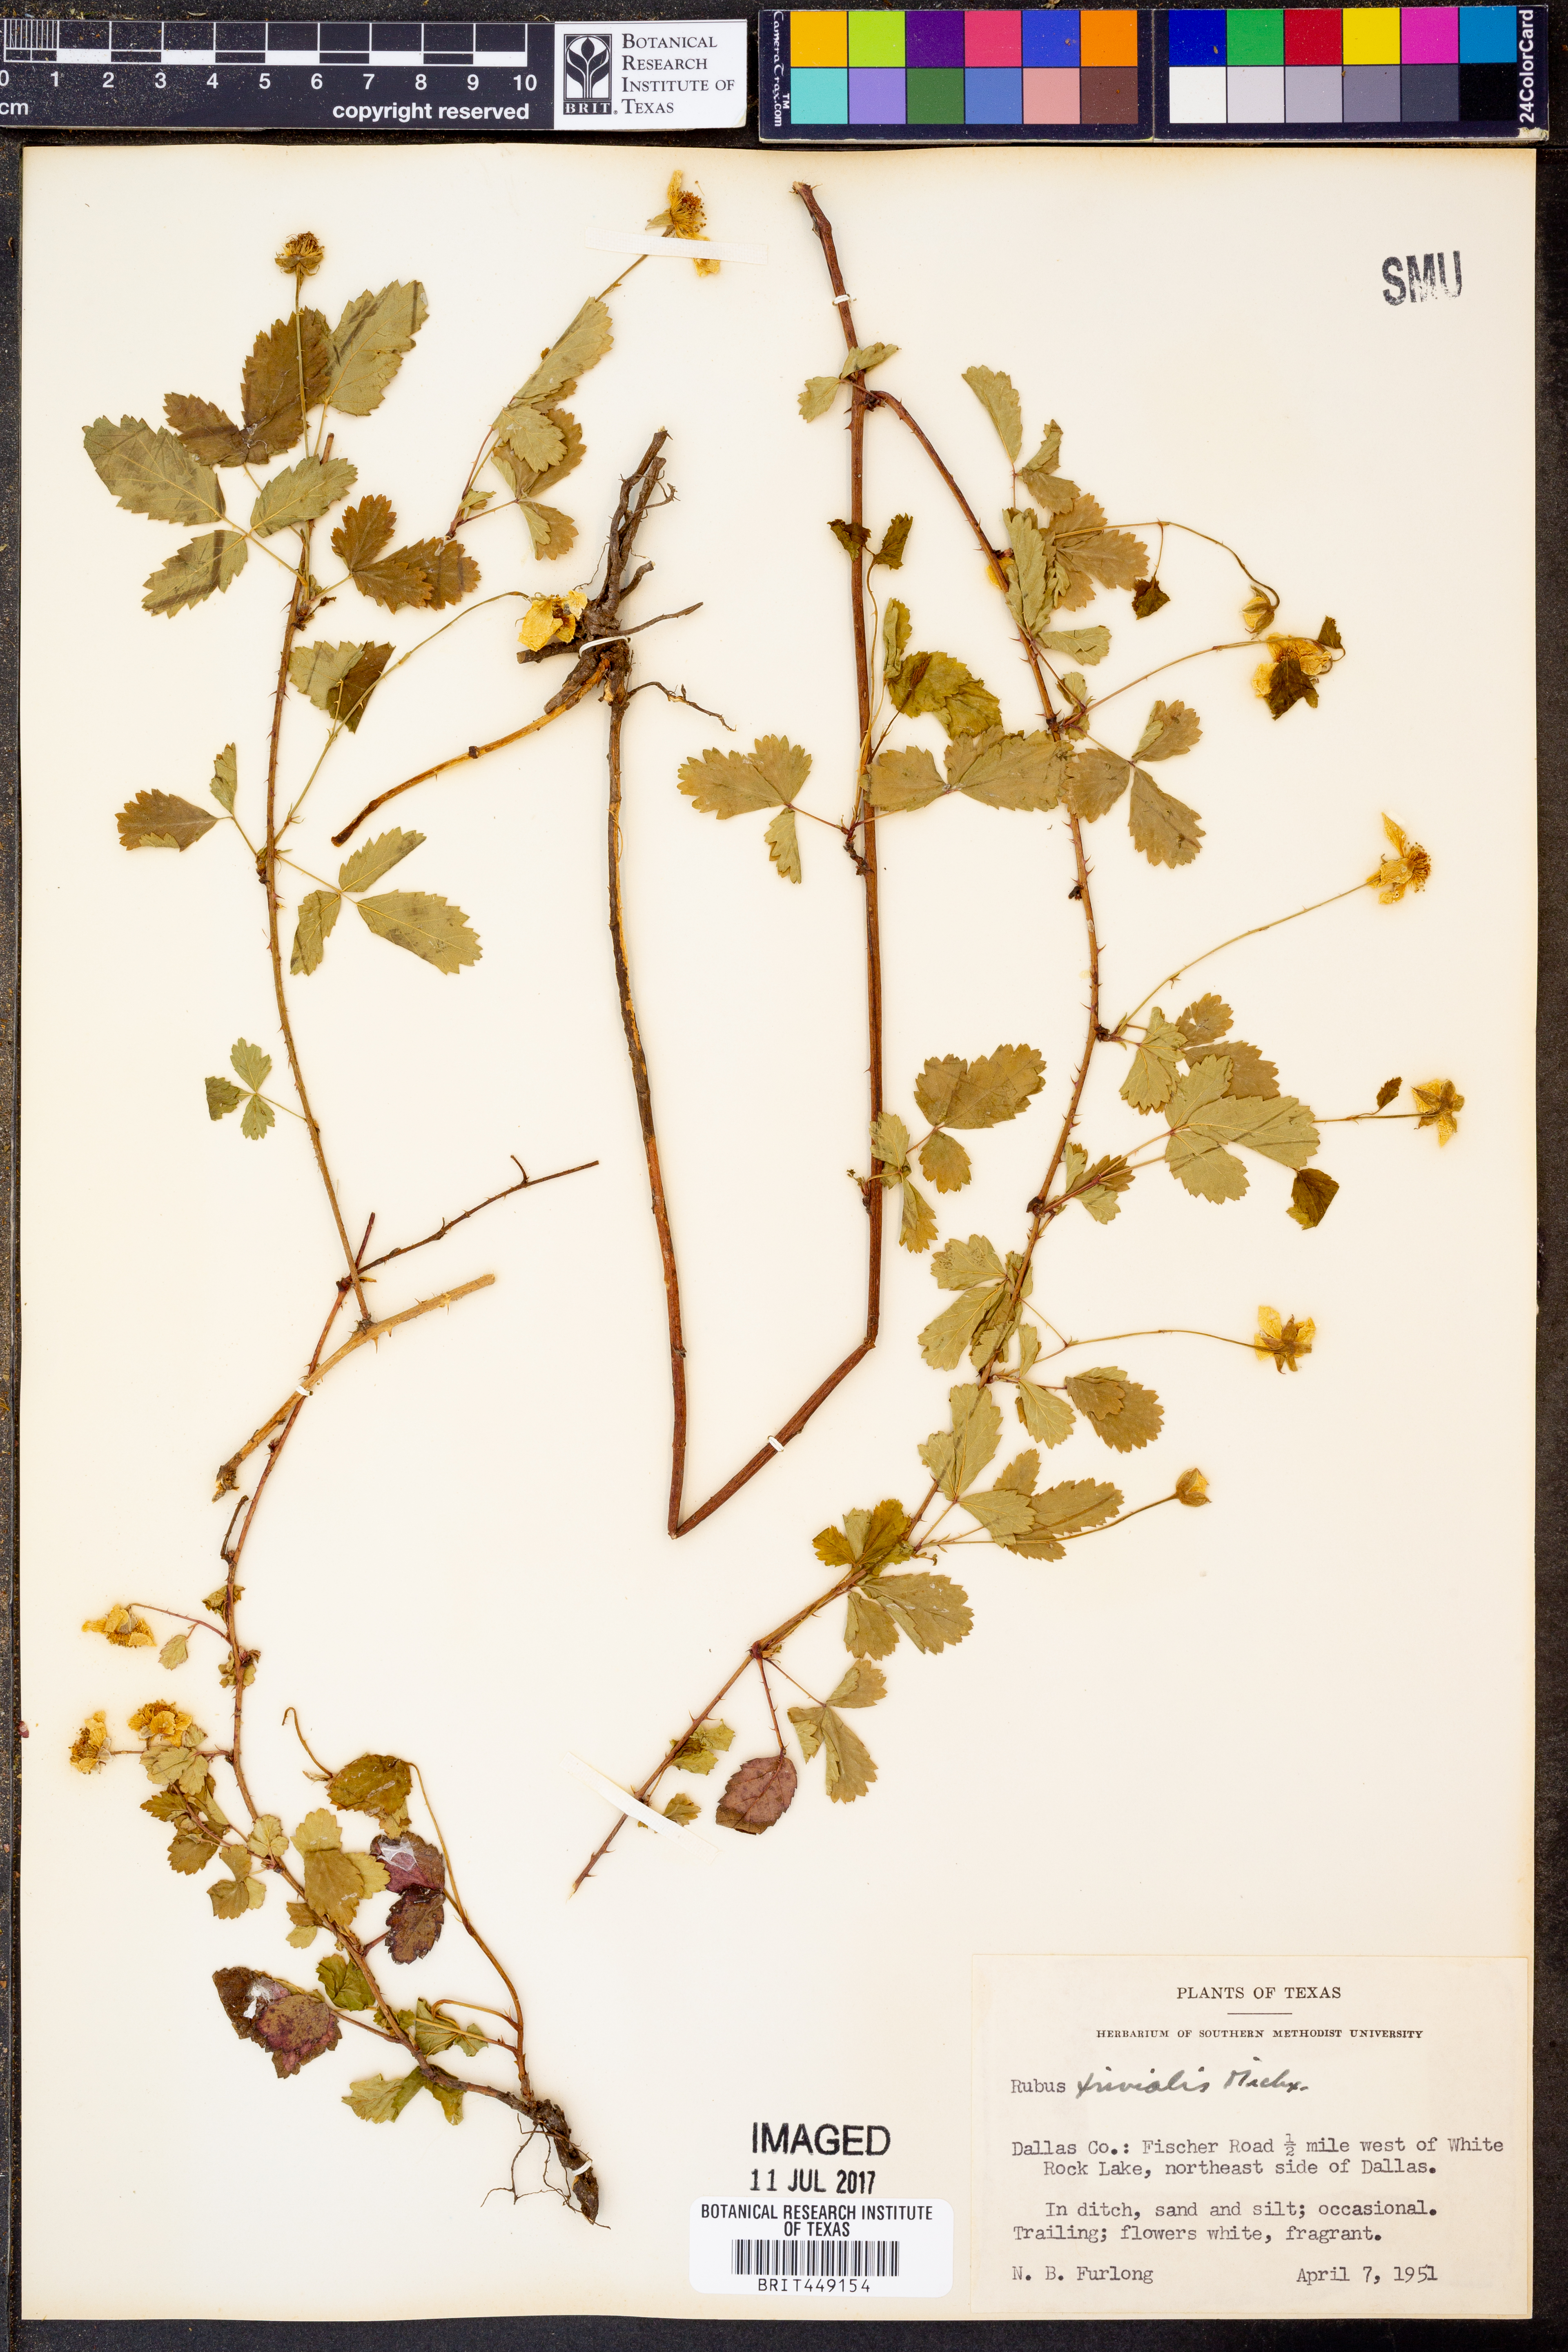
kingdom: Plantae
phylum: Tracheophyta
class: Magnoliopsida
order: Rosales
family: Rosaceae
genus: Rubus
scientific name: Rubus trivialis
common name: Southern dewberry
